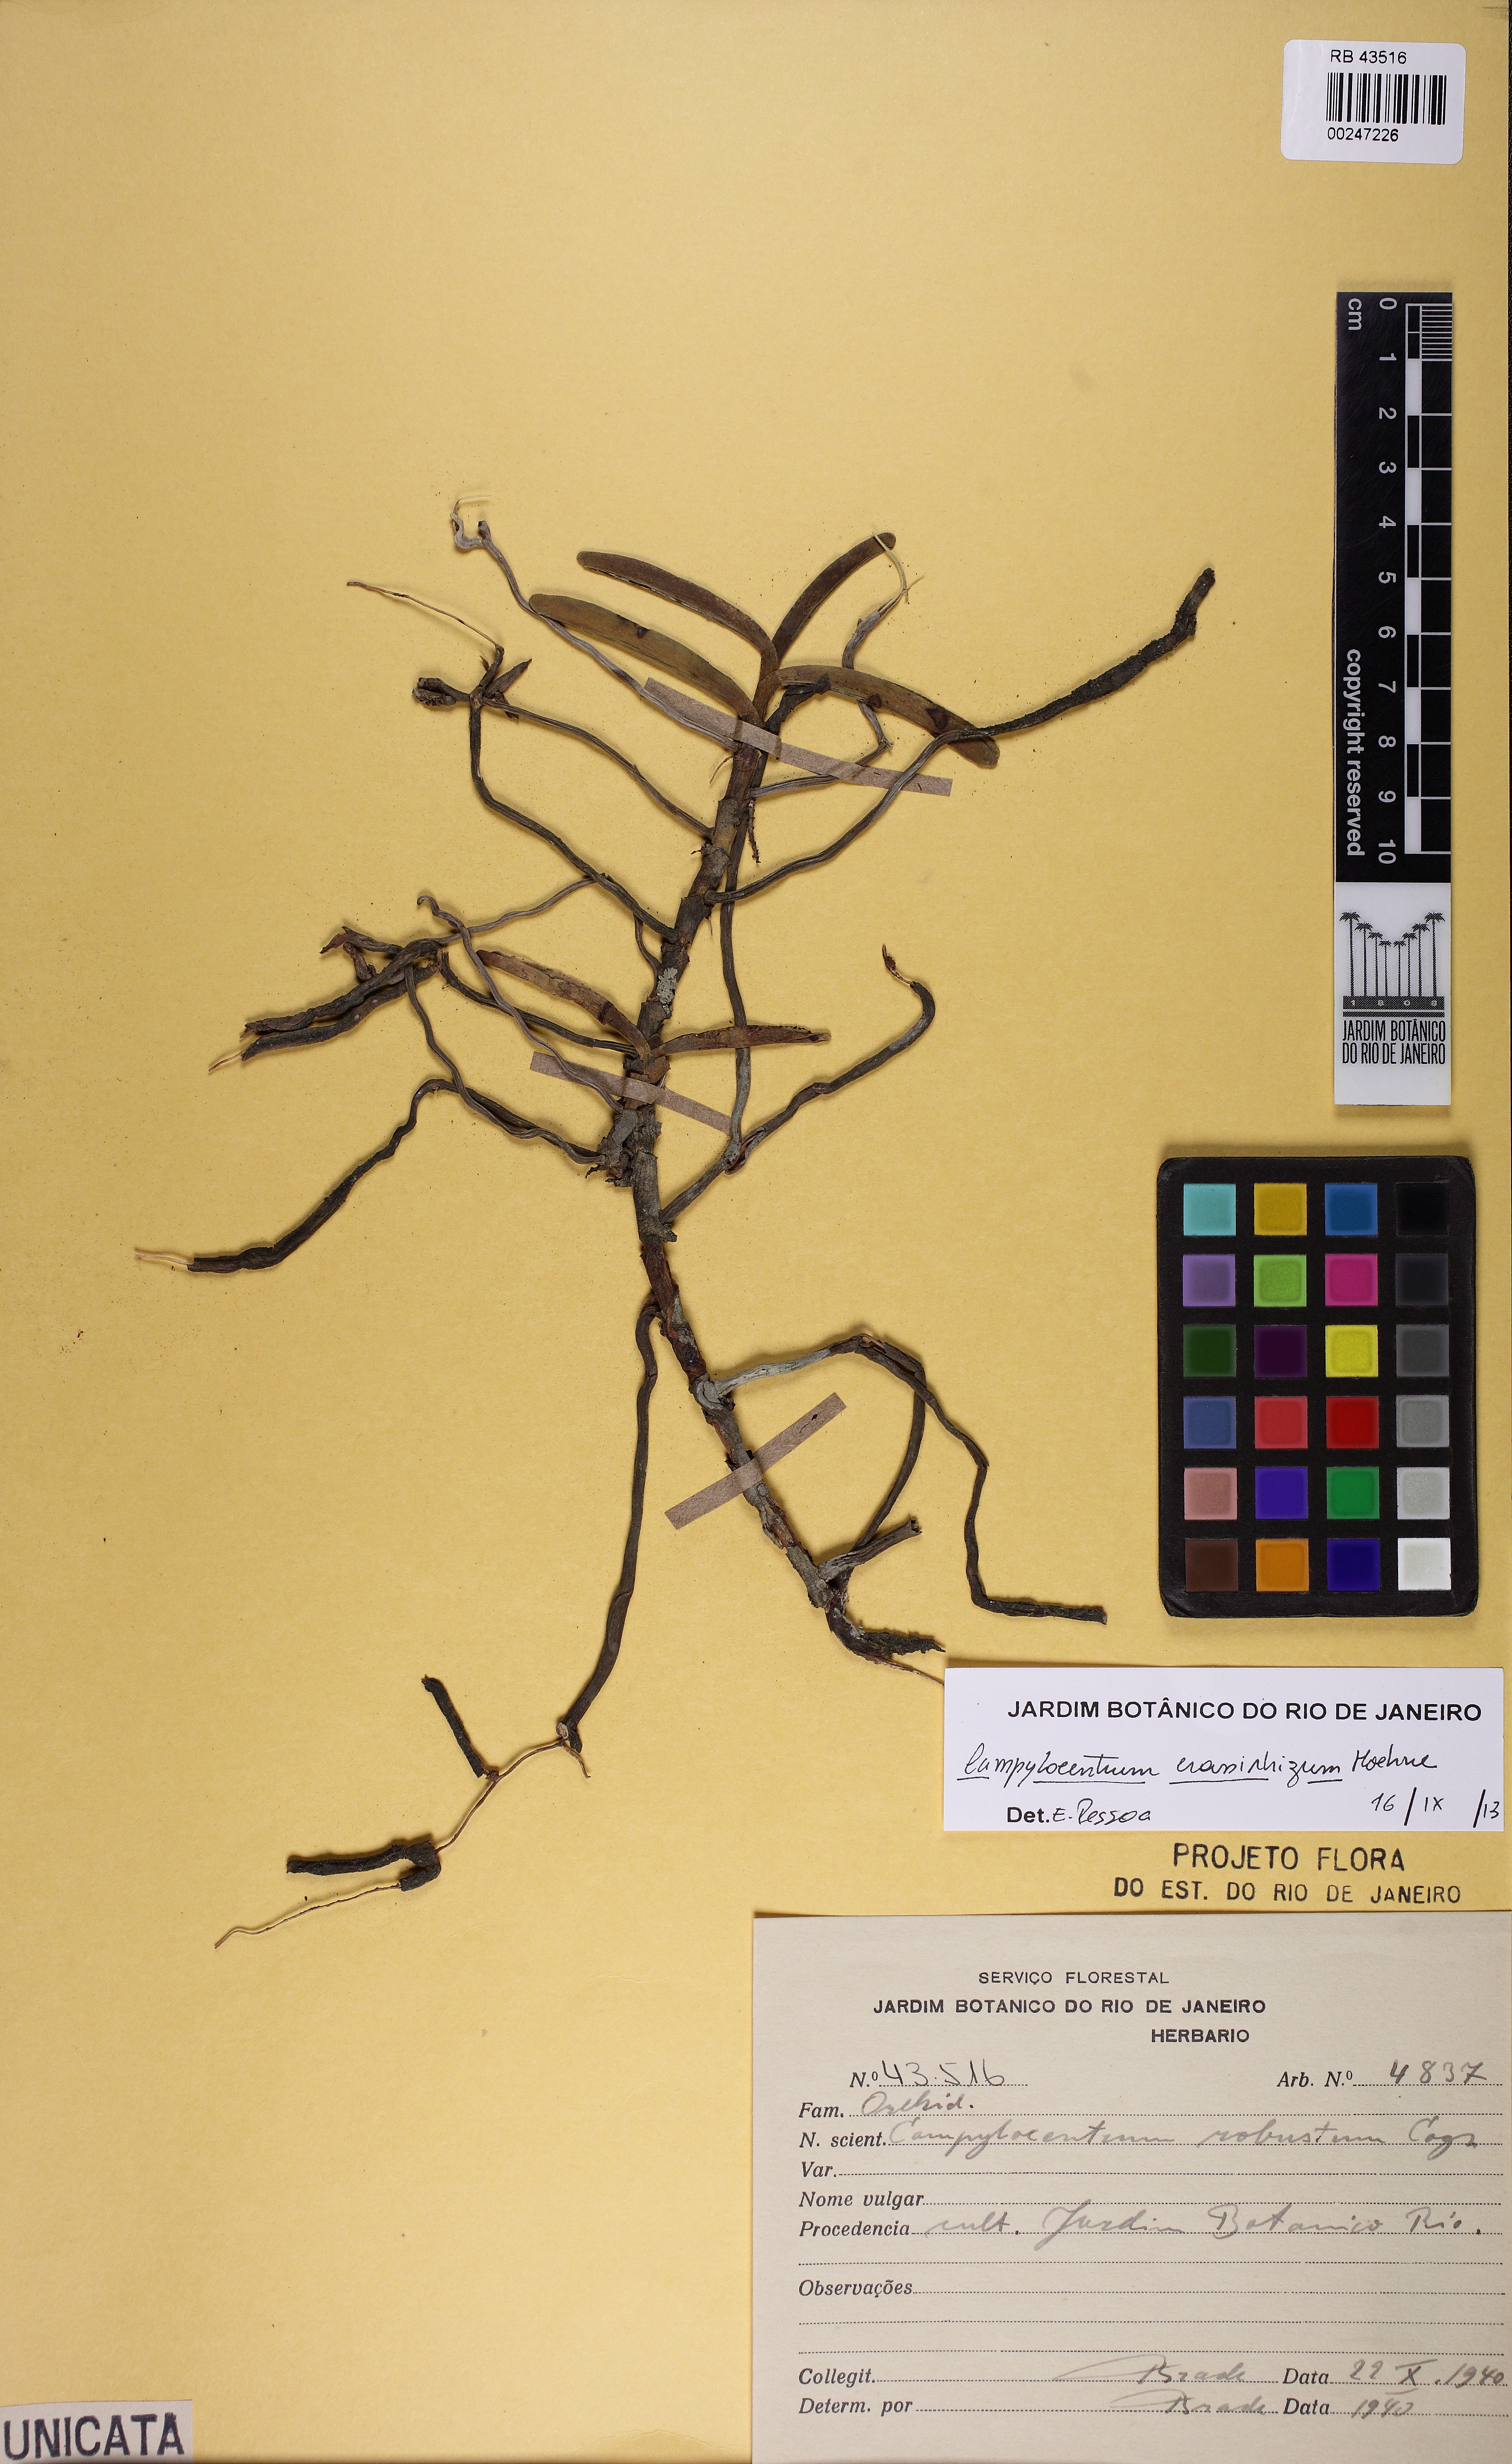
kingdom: Plantae
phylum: Tracheophyta
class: Liliopsida
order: Asparagales
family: Orchidaceae
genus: Campylocentrum
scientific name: Campylocentrum crassirhizum
